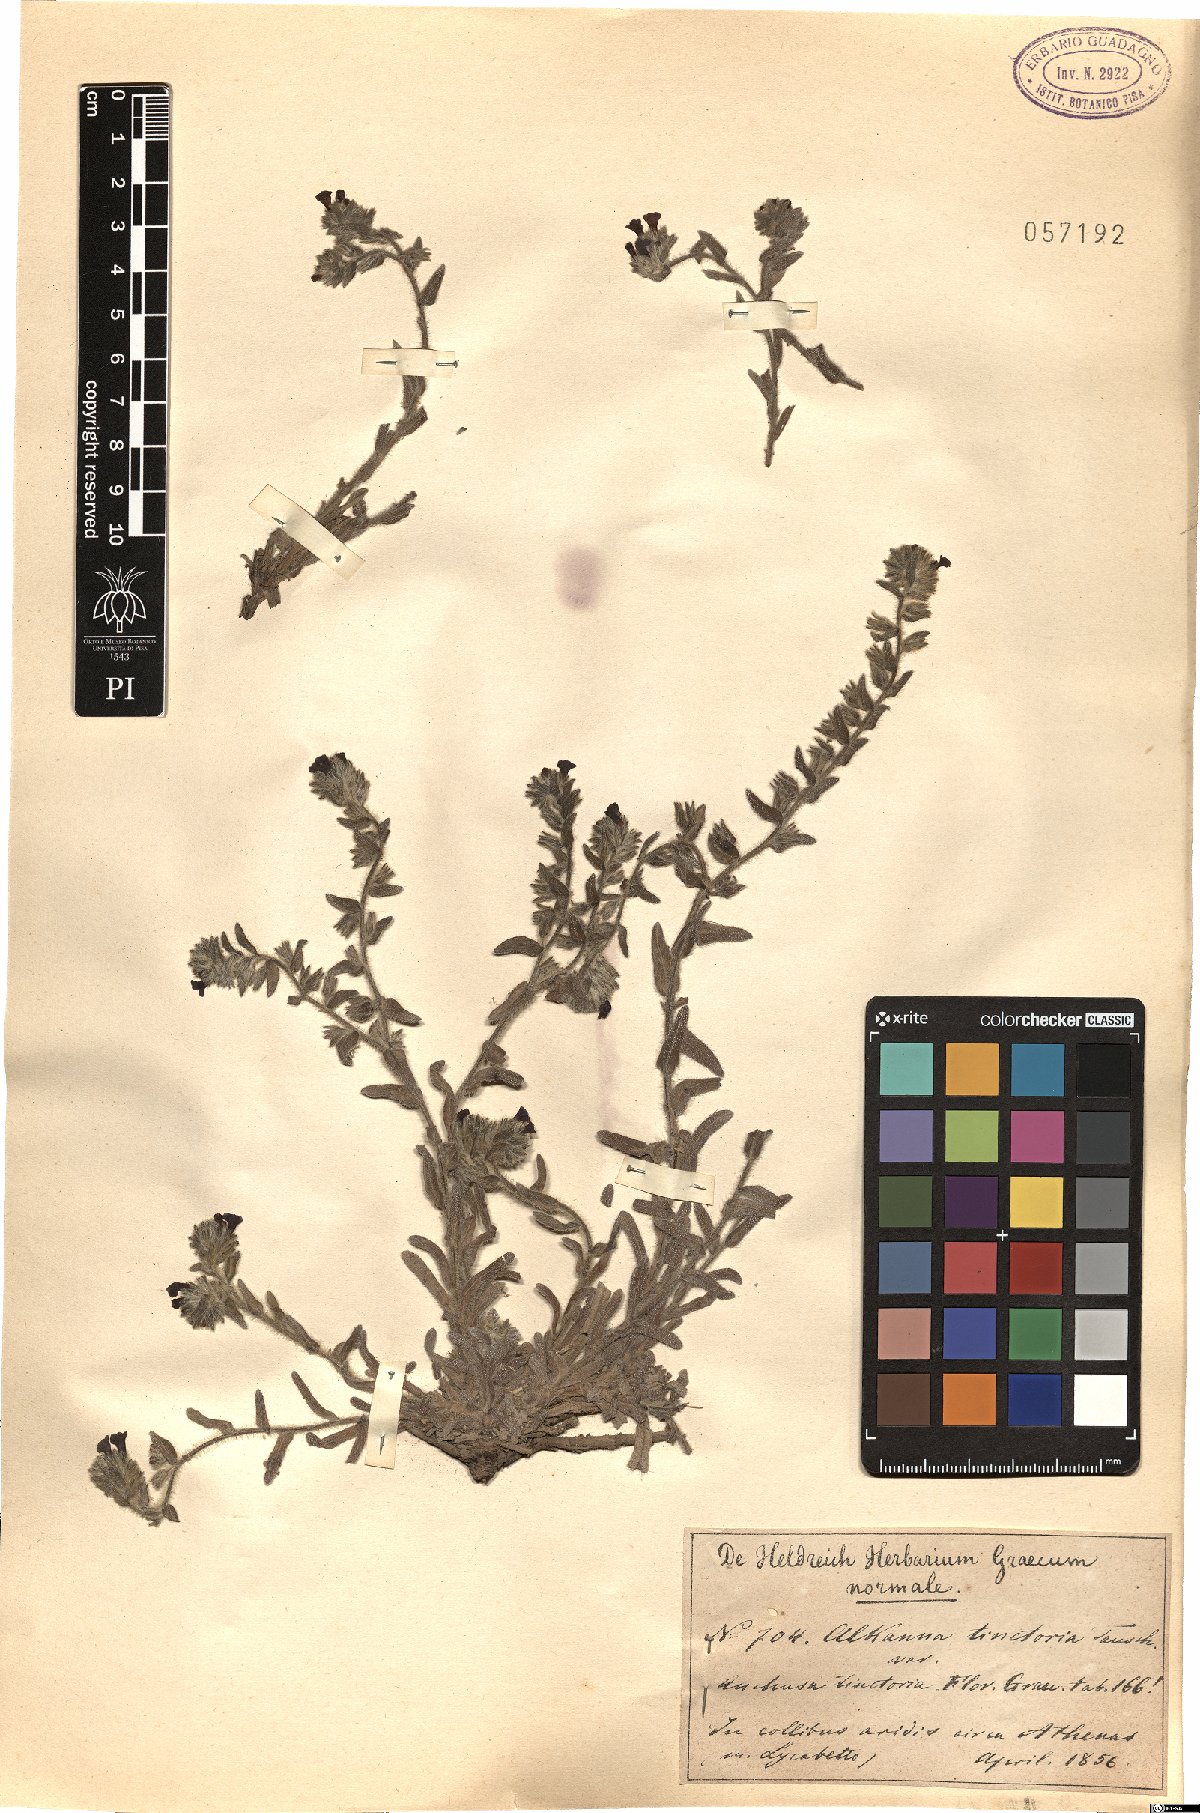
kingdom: Plantae
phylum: Tracheophyta
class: Magnoliopsida
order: Boraginales
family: Boraginaceae
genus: Alkanna
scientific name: Alkanna tinctoria
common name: Dyer's-alkanet
